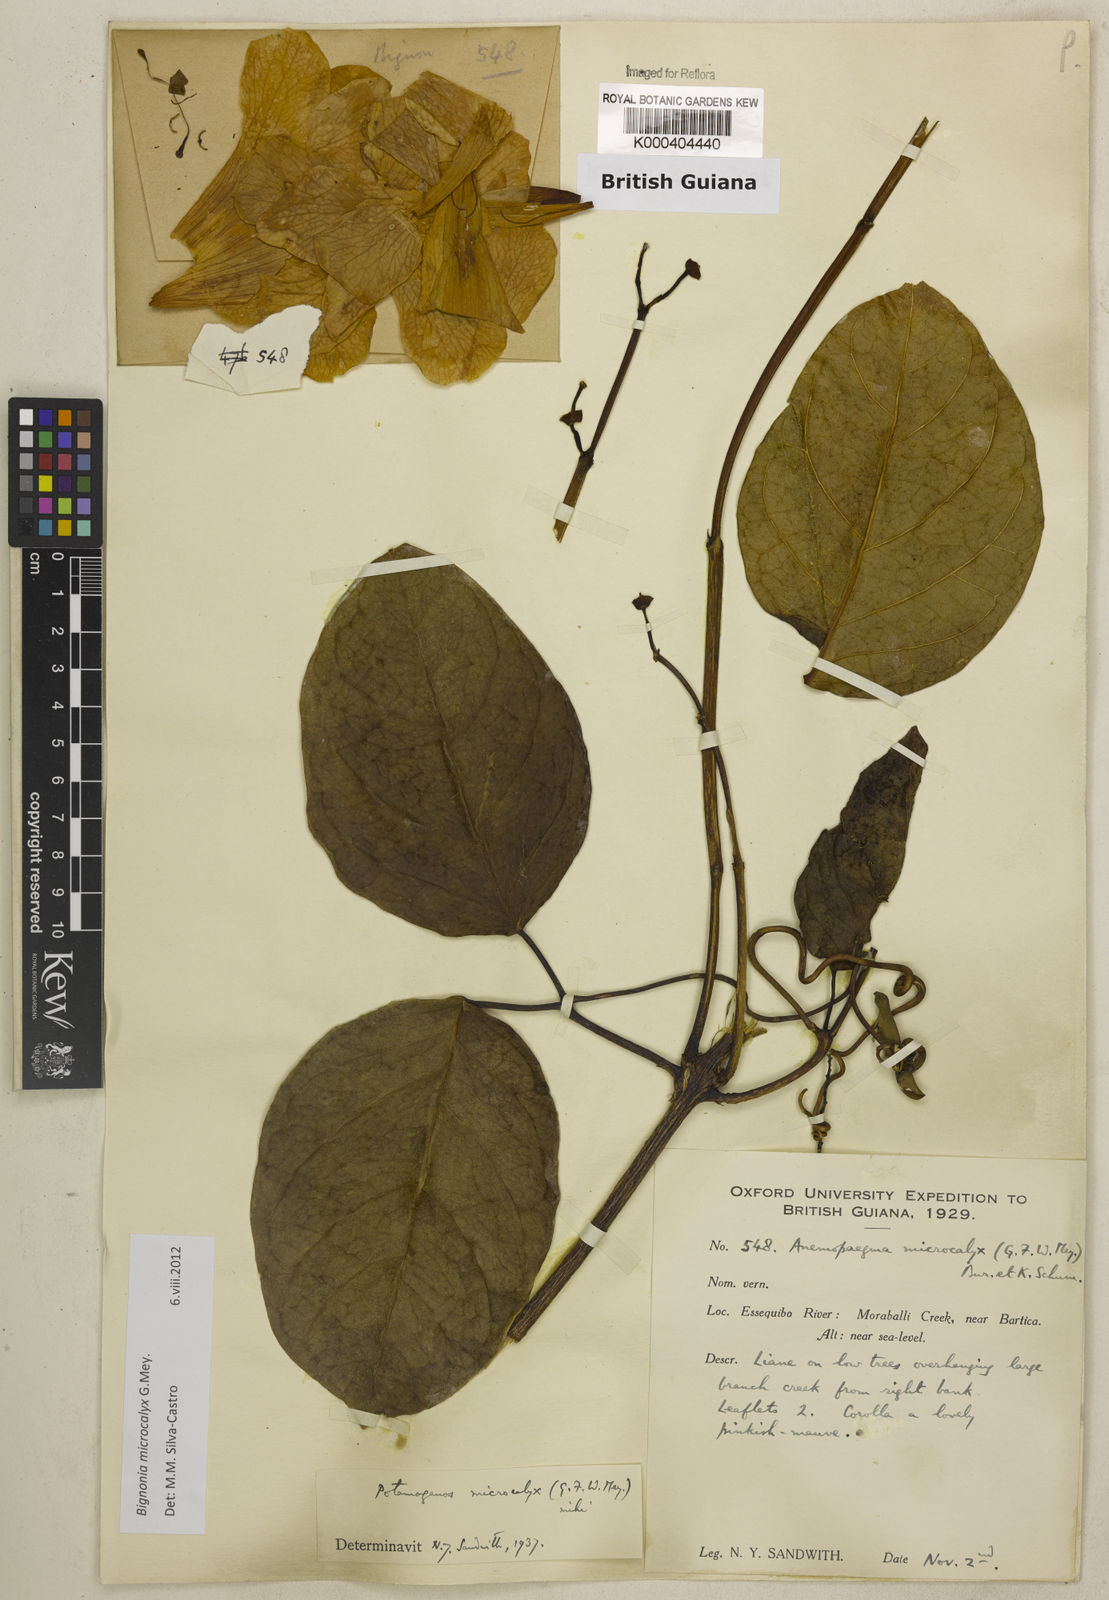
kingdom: Plantae
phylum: Tracheophyta
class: Magnoliopsida
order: Lamiales
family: Bignoniaceae
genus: Bignonia
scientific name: Bignonia microcalyx
